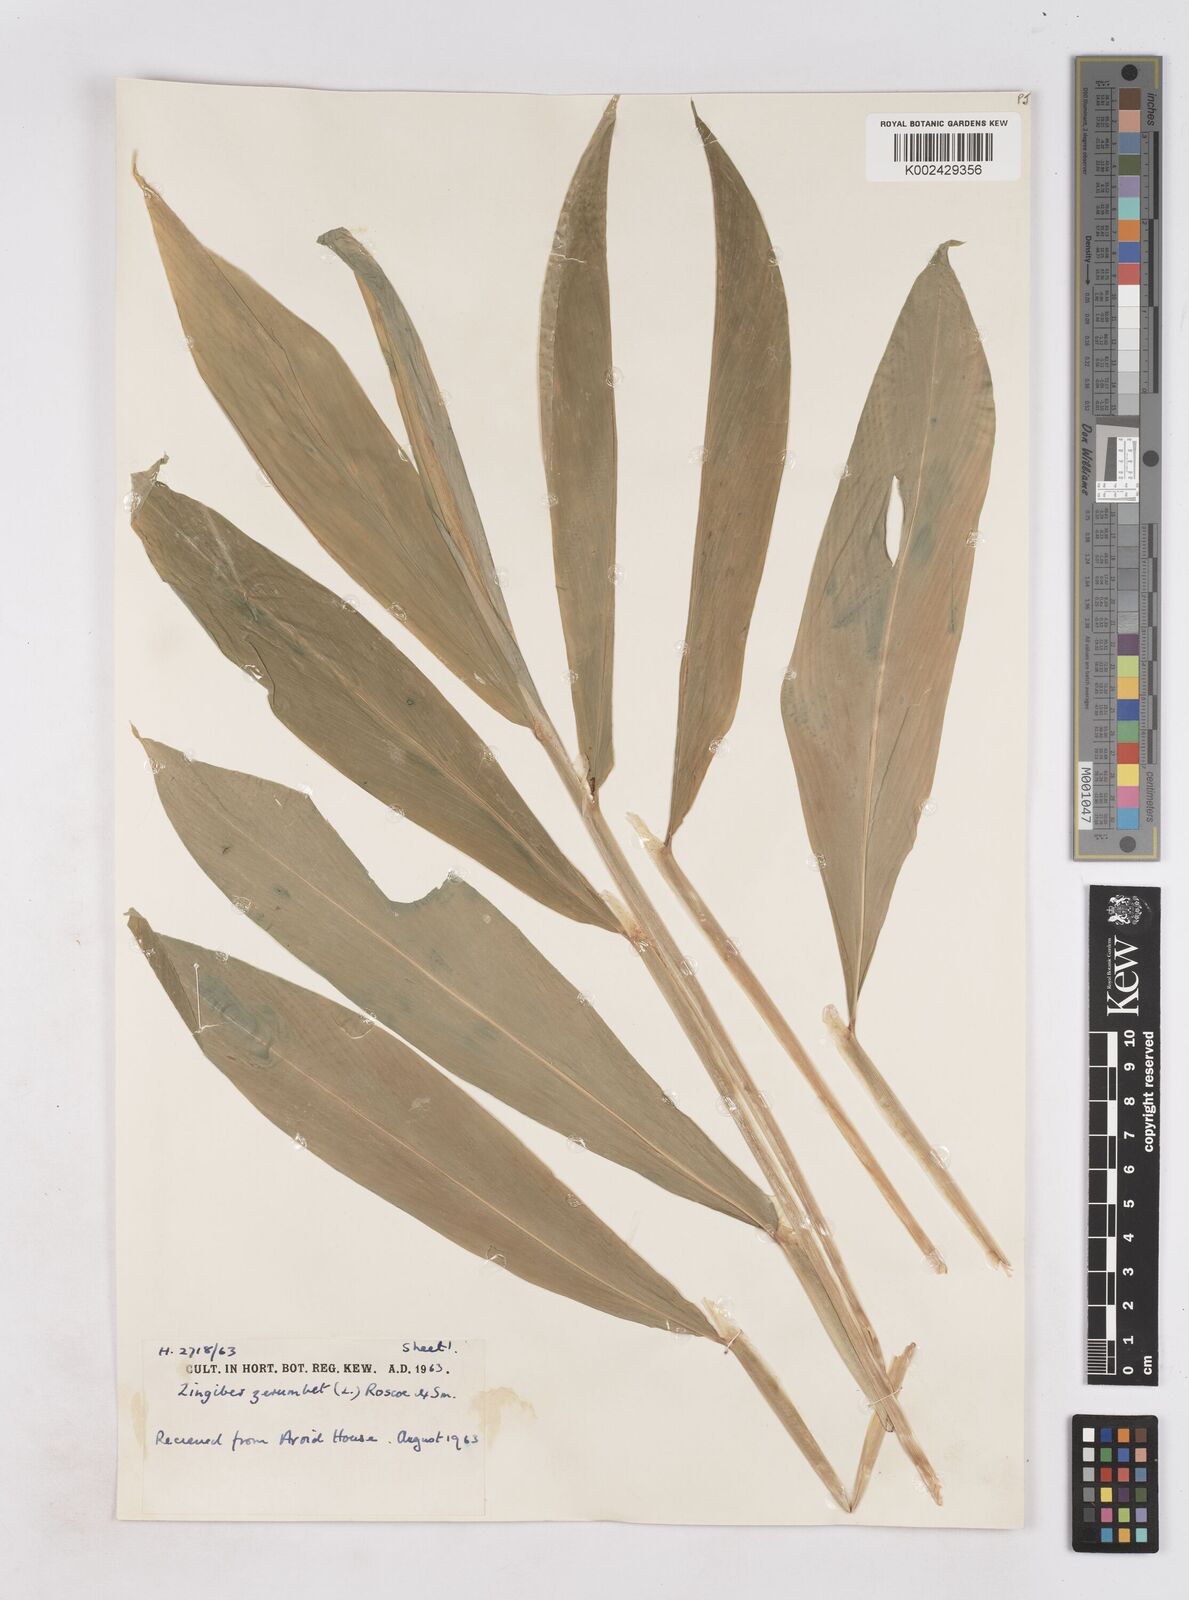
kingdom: Plantae
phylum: Tracheophyta
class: Liliopsida
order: Zingiberales
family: Zingiberaceae
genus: Zingiber
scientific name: Zingiber zerumbet
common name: Bitter ginger
